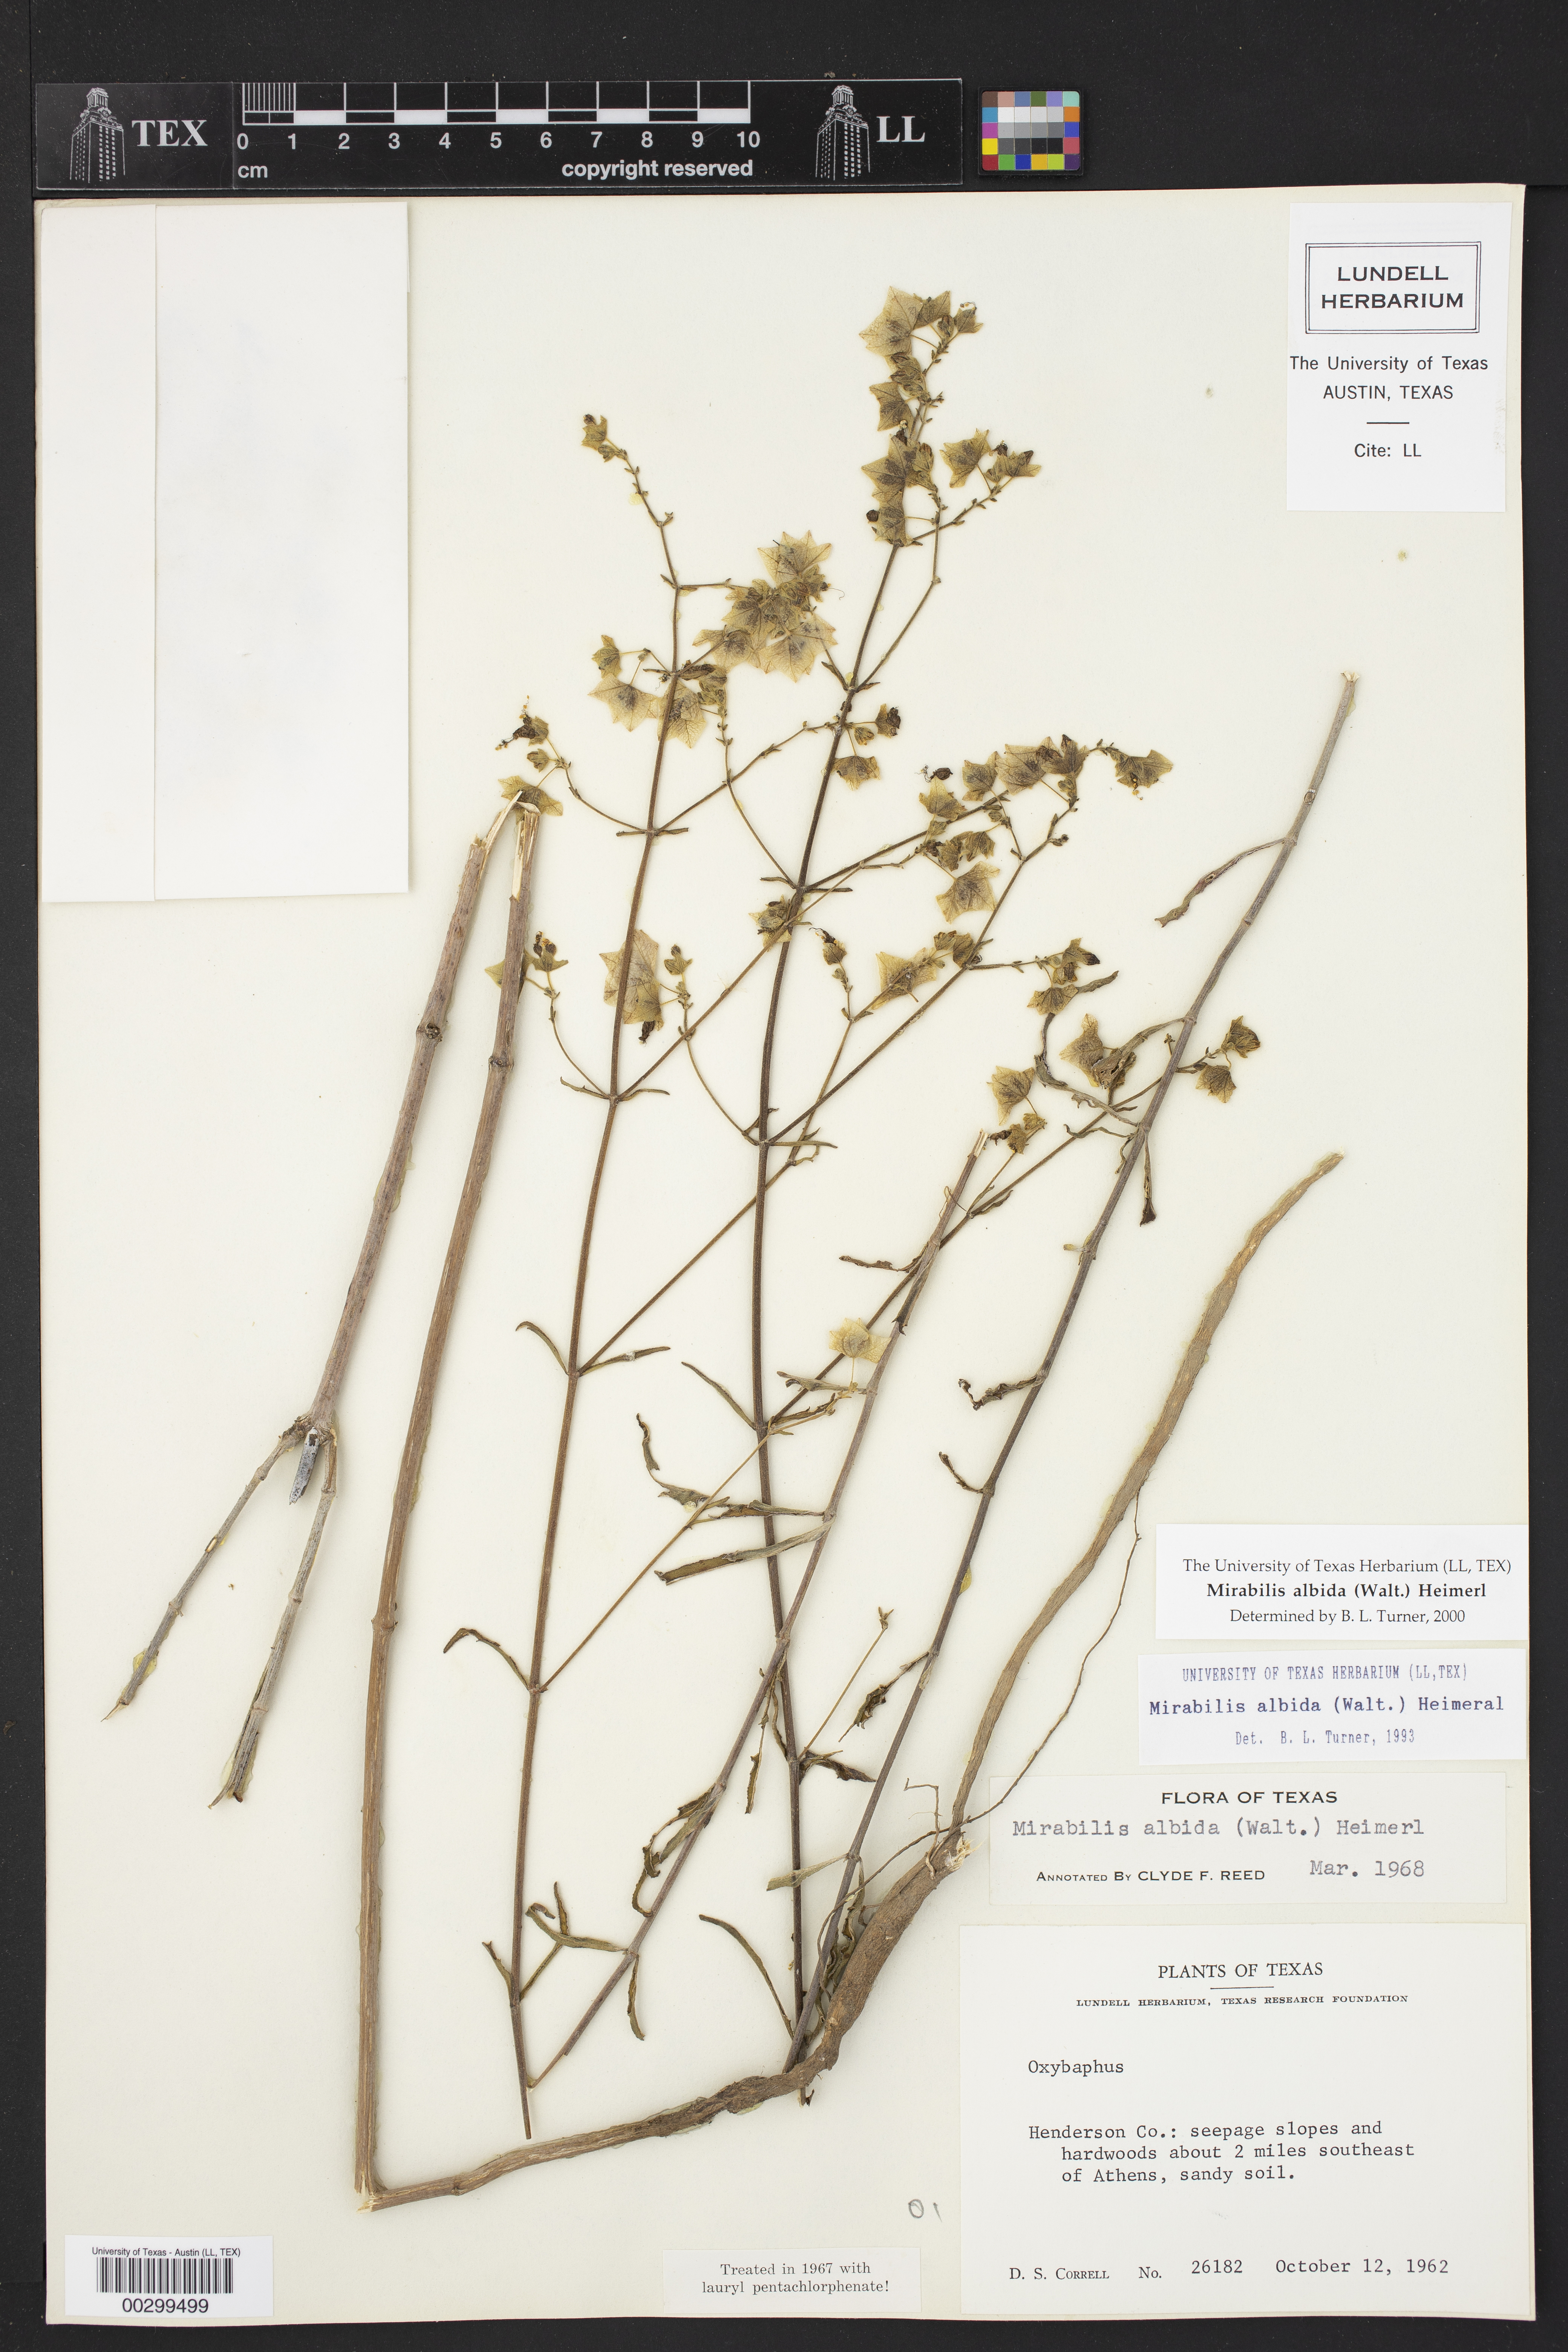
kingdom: Plantae
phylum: Tracheophyta
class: Magnoliopsida
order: Caryophyllales
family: Nyctaginaceae
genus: Mirabilis
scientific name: Mirabilis albida
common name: Hairy four-o'clock
